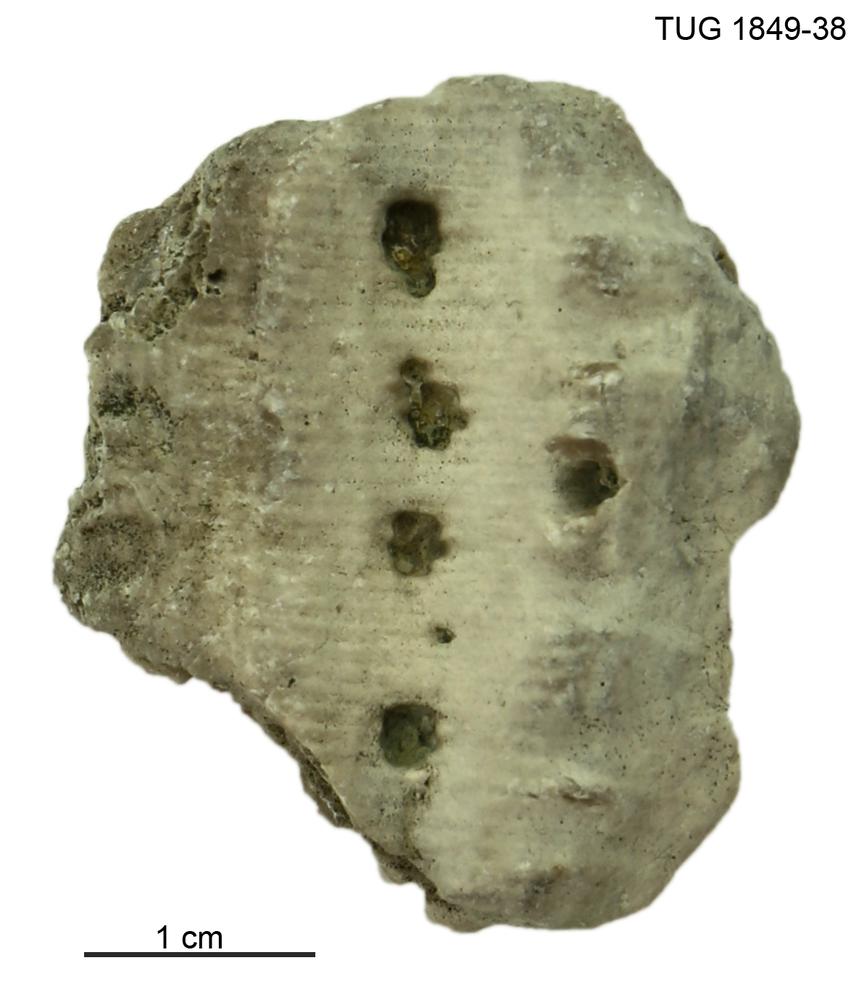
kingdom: Animalia
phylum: Echinodermata
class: Crinoidea
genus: Enallocrinus
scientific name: Enallocrinus
